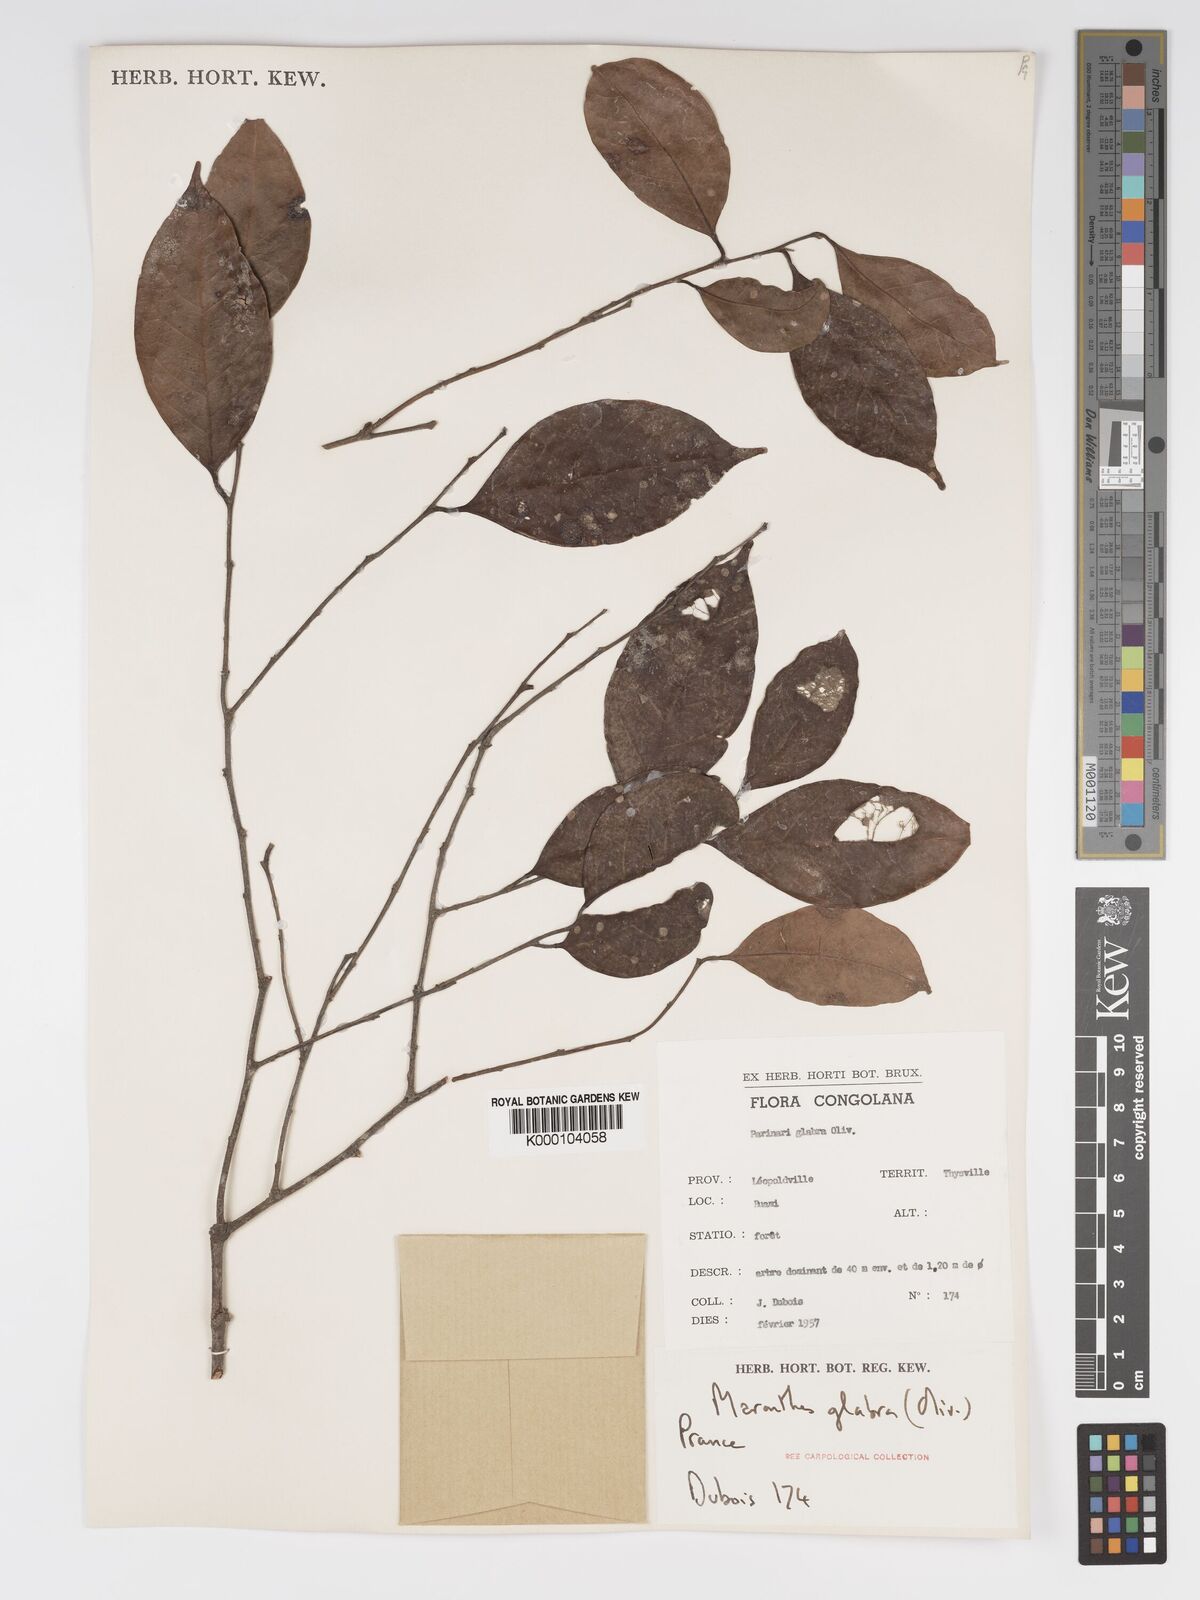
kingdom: Plantae
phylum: Tracheophyta
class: Magnoliopsida
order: Malpighiales
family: Chrysobalanaceae
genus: Maranthes
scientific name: Maranthes glabra
